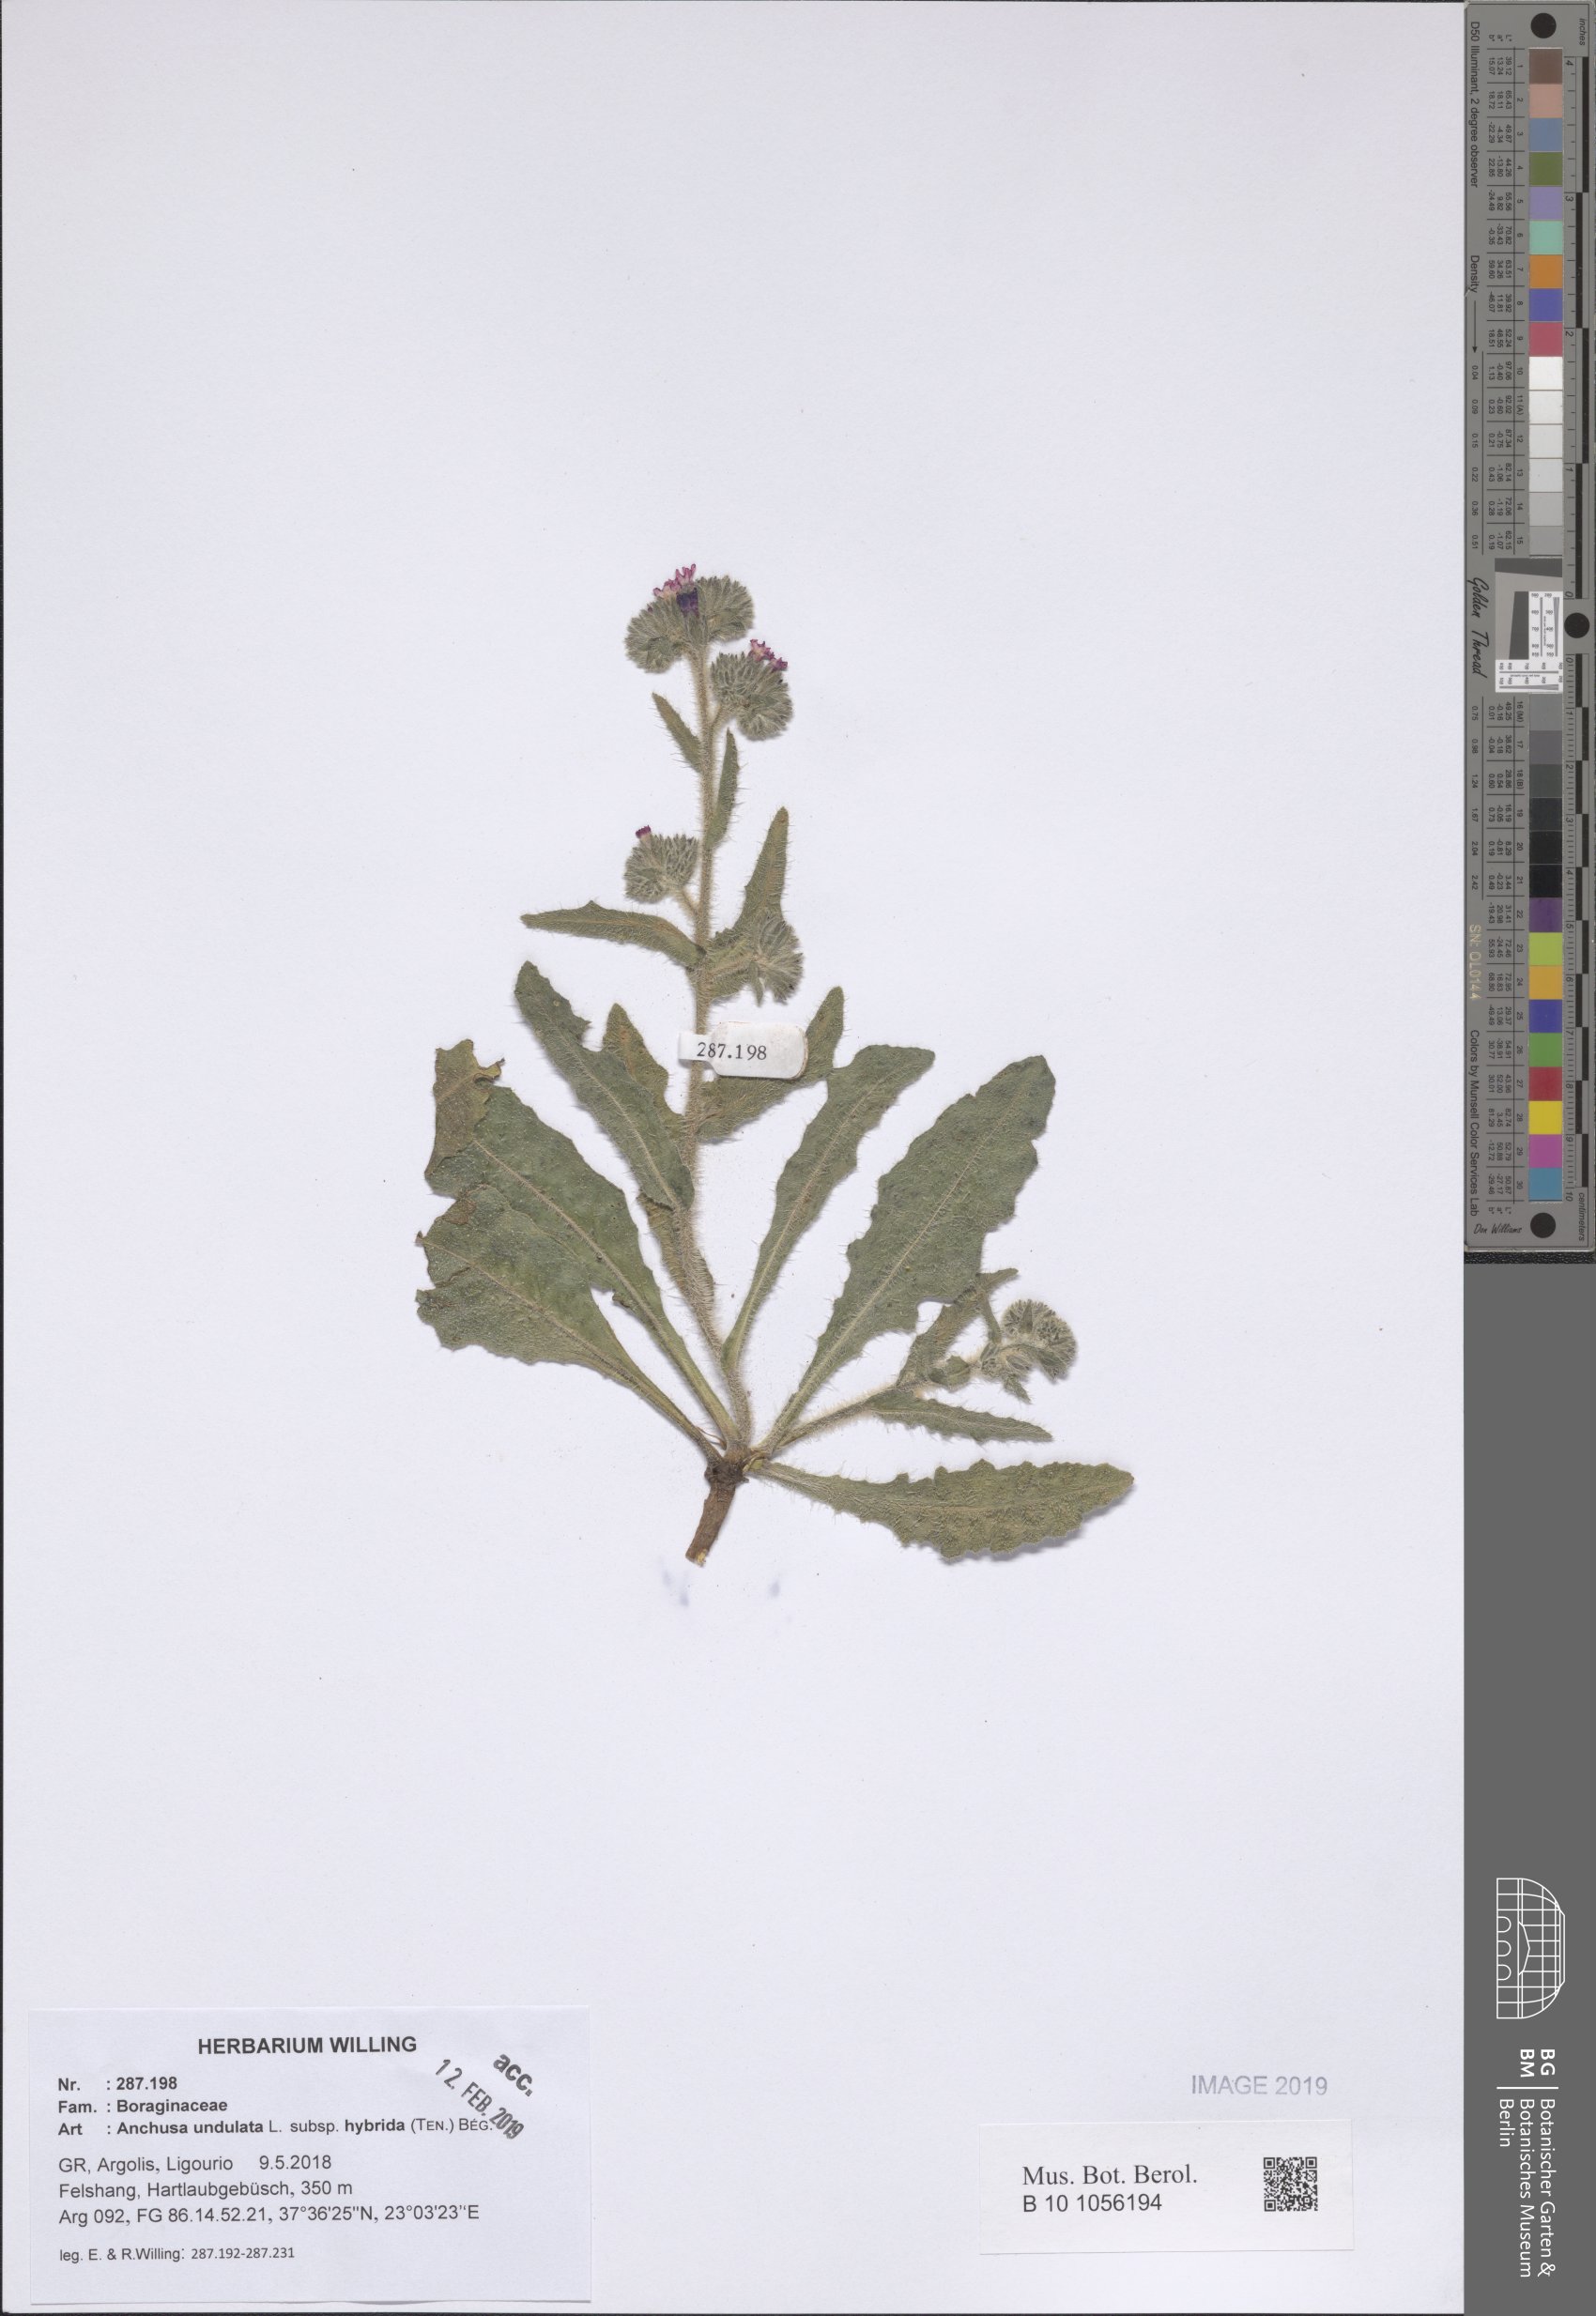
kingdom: Plantae
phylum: Tracheophyta
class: Magnoliopsida
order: Boraginales
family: Boraginaceae
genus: Anchusa
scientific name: Anchusa undulata
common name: Undulate alkanet
